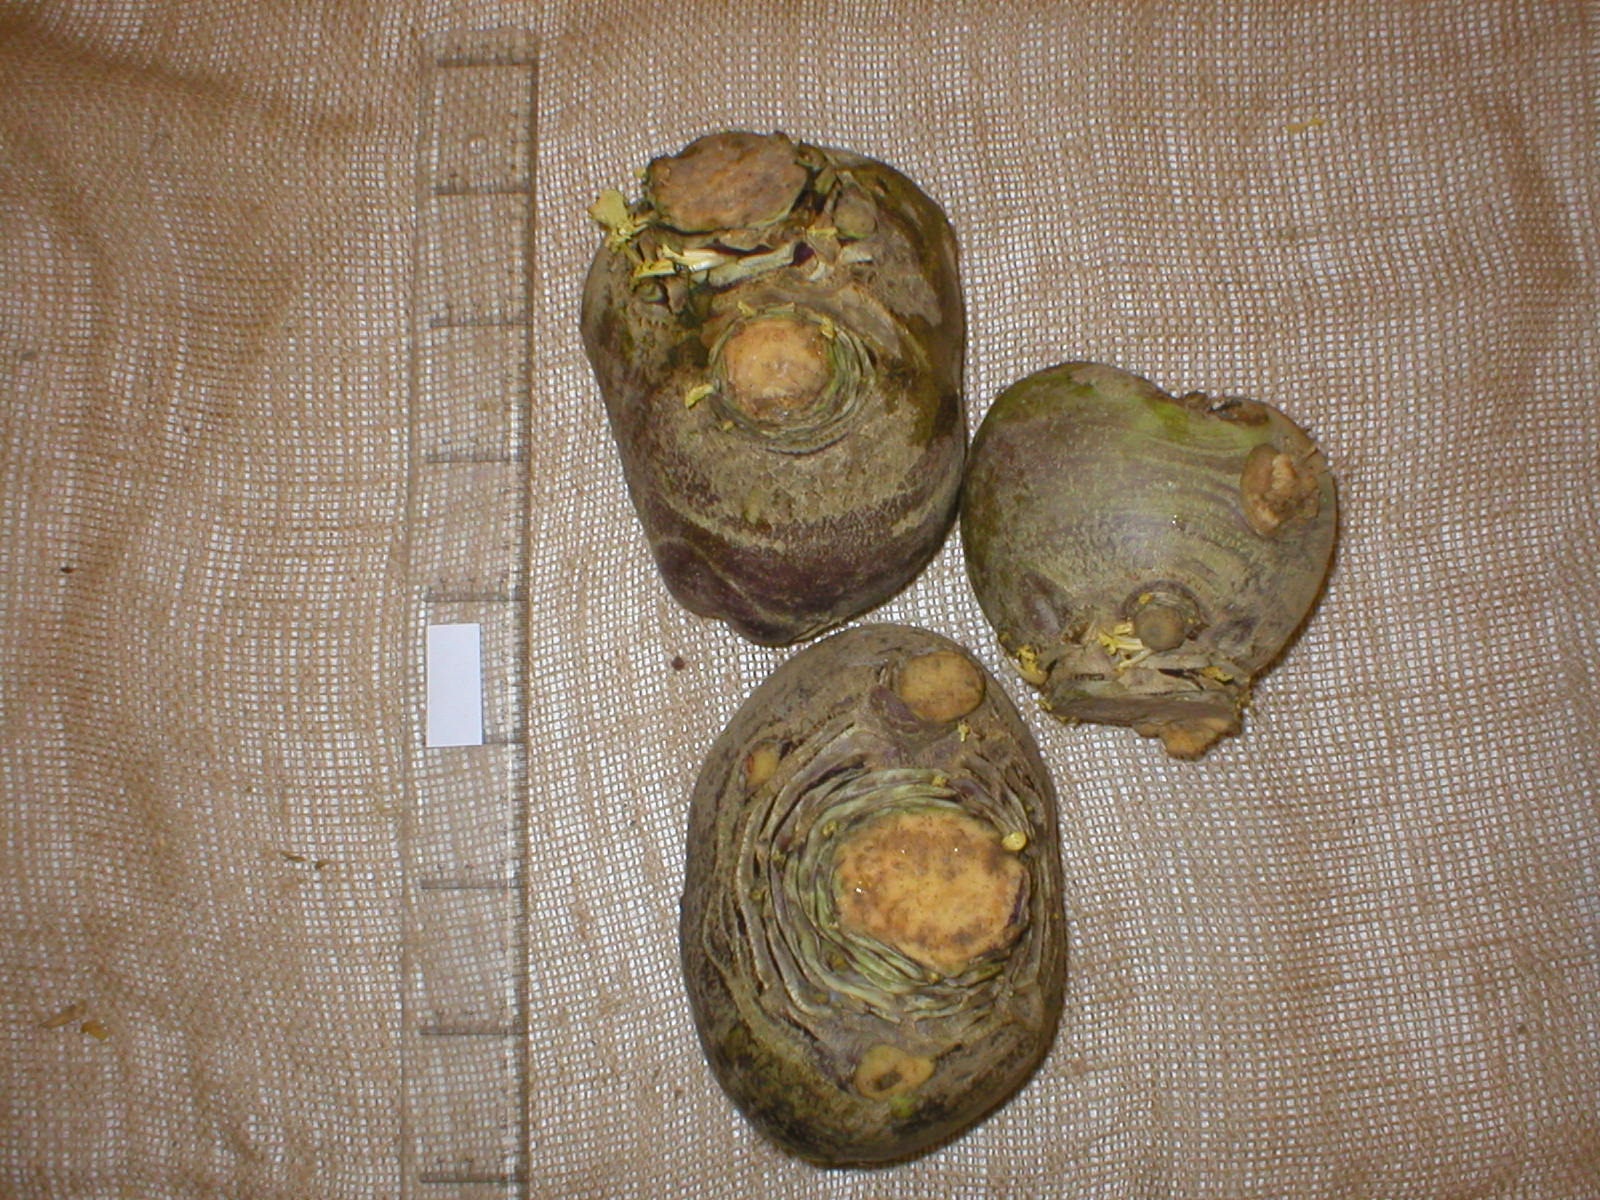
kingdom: Plantae
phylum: Tracheophyta
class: Magnoliopsida
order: Brassicales
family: Brassicaceae
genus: Brassica
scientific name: Brassica napus
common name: Rape
